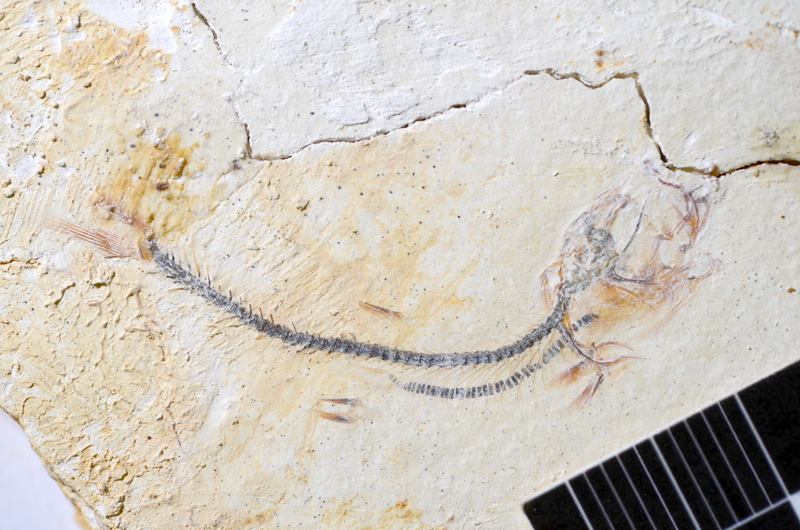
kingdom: Animalia
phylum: Chordata
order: Salmoniformes
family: Orthogonikleithridae
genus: Orthogonikleithrus
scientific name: Orthogonikleithrus hoelli
